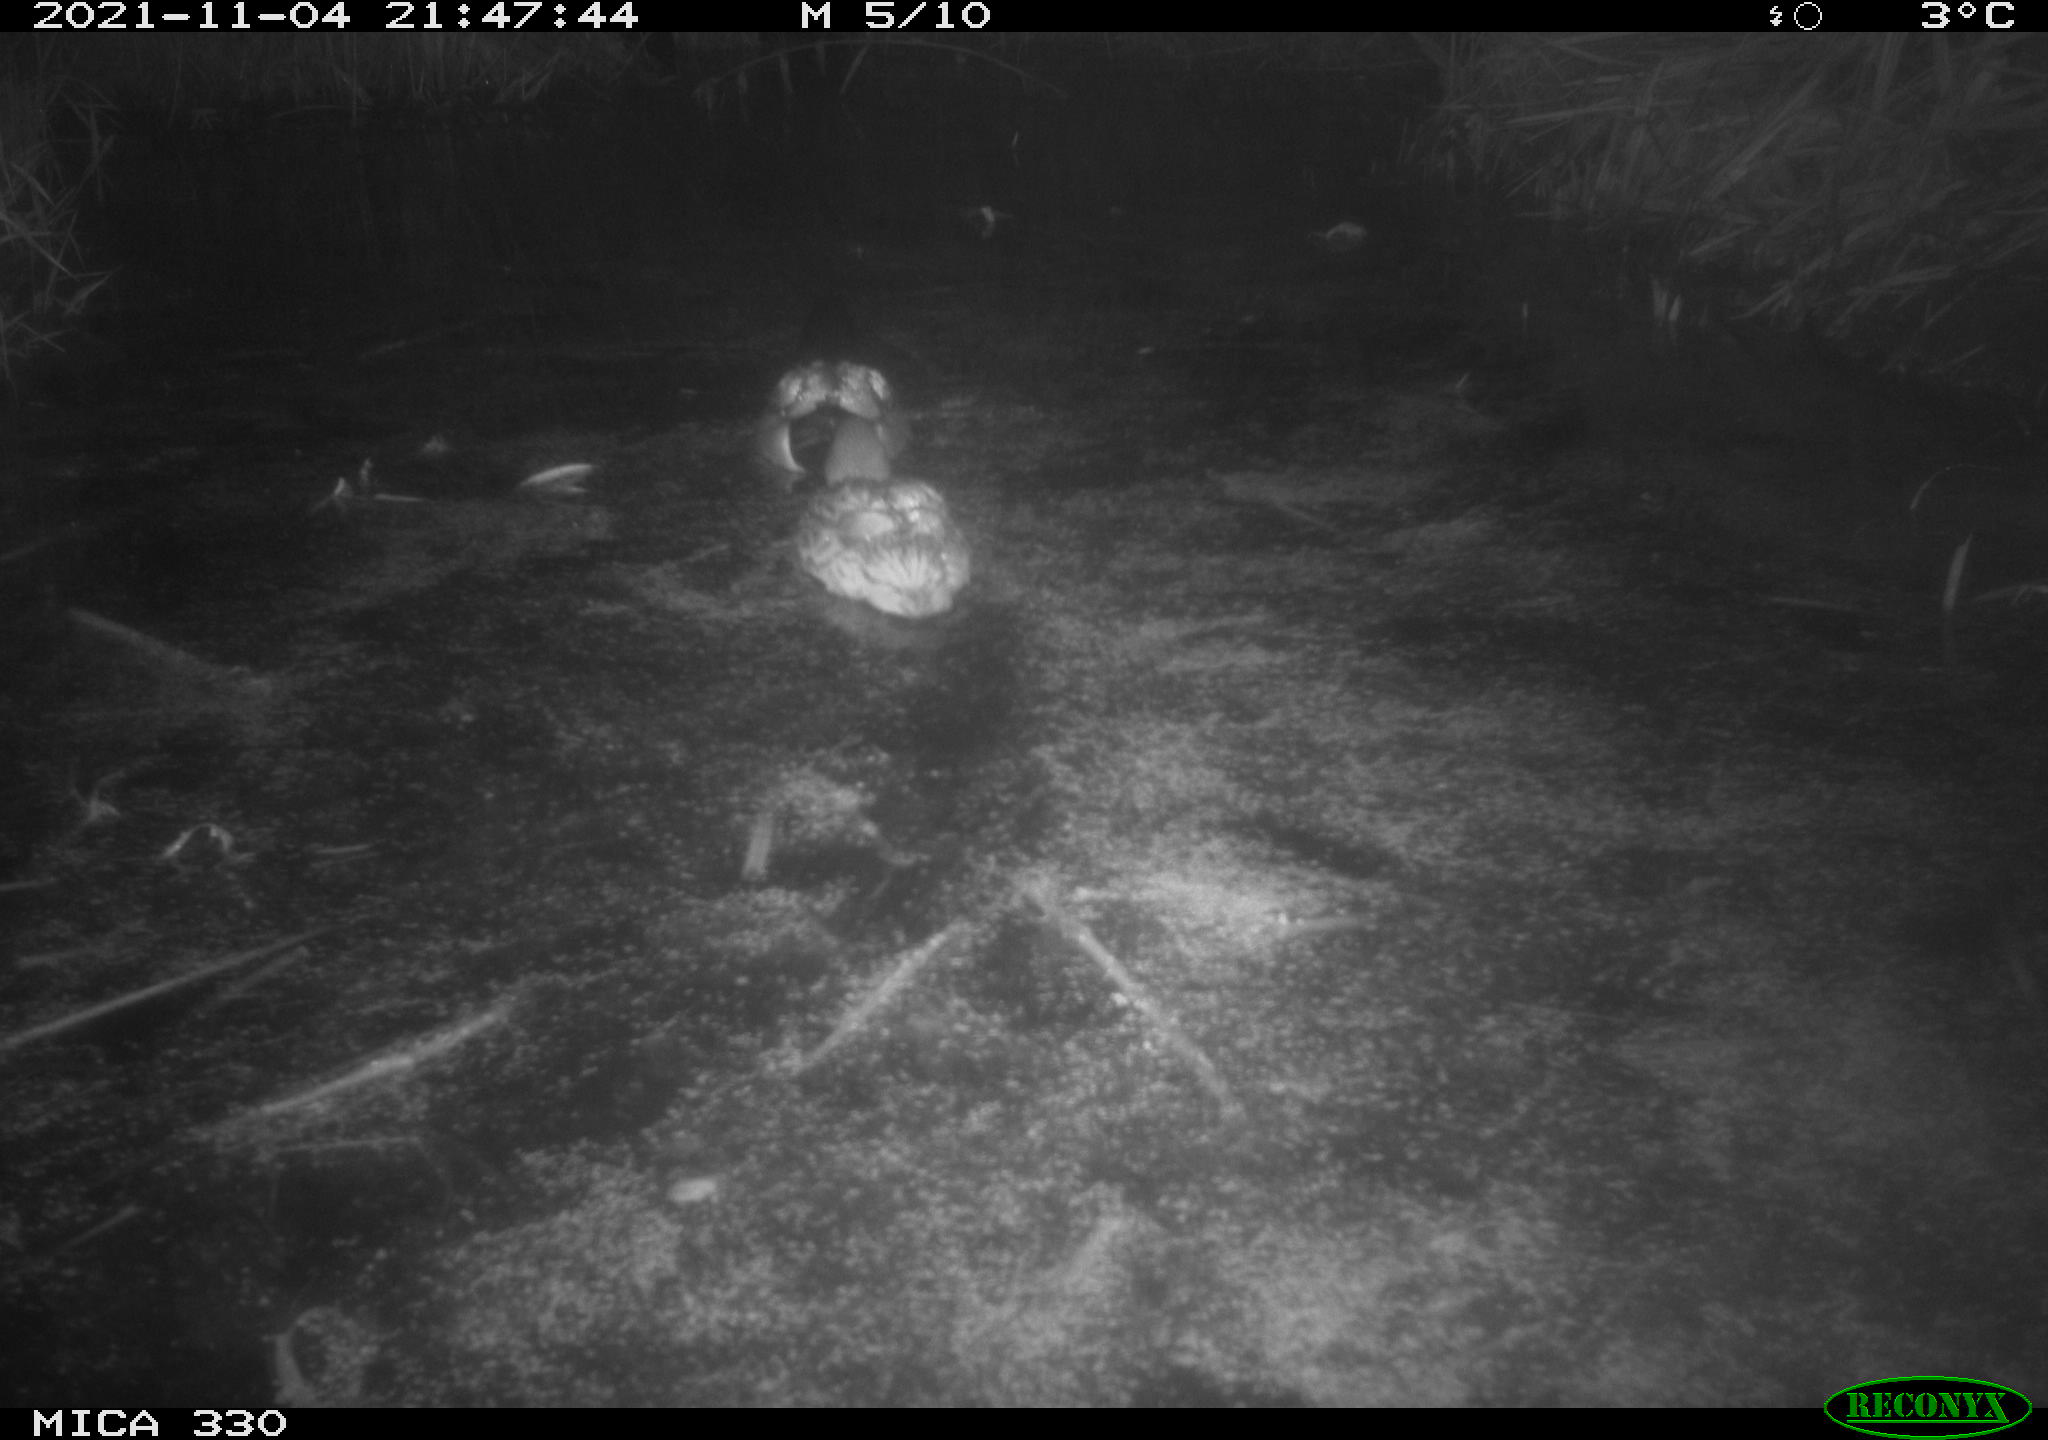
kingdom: Animalia
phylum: Chordata
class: Aves
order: Anseriformes
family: Anatidae
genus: Anas
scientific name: Anas platyrhynchos
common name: Mallard
